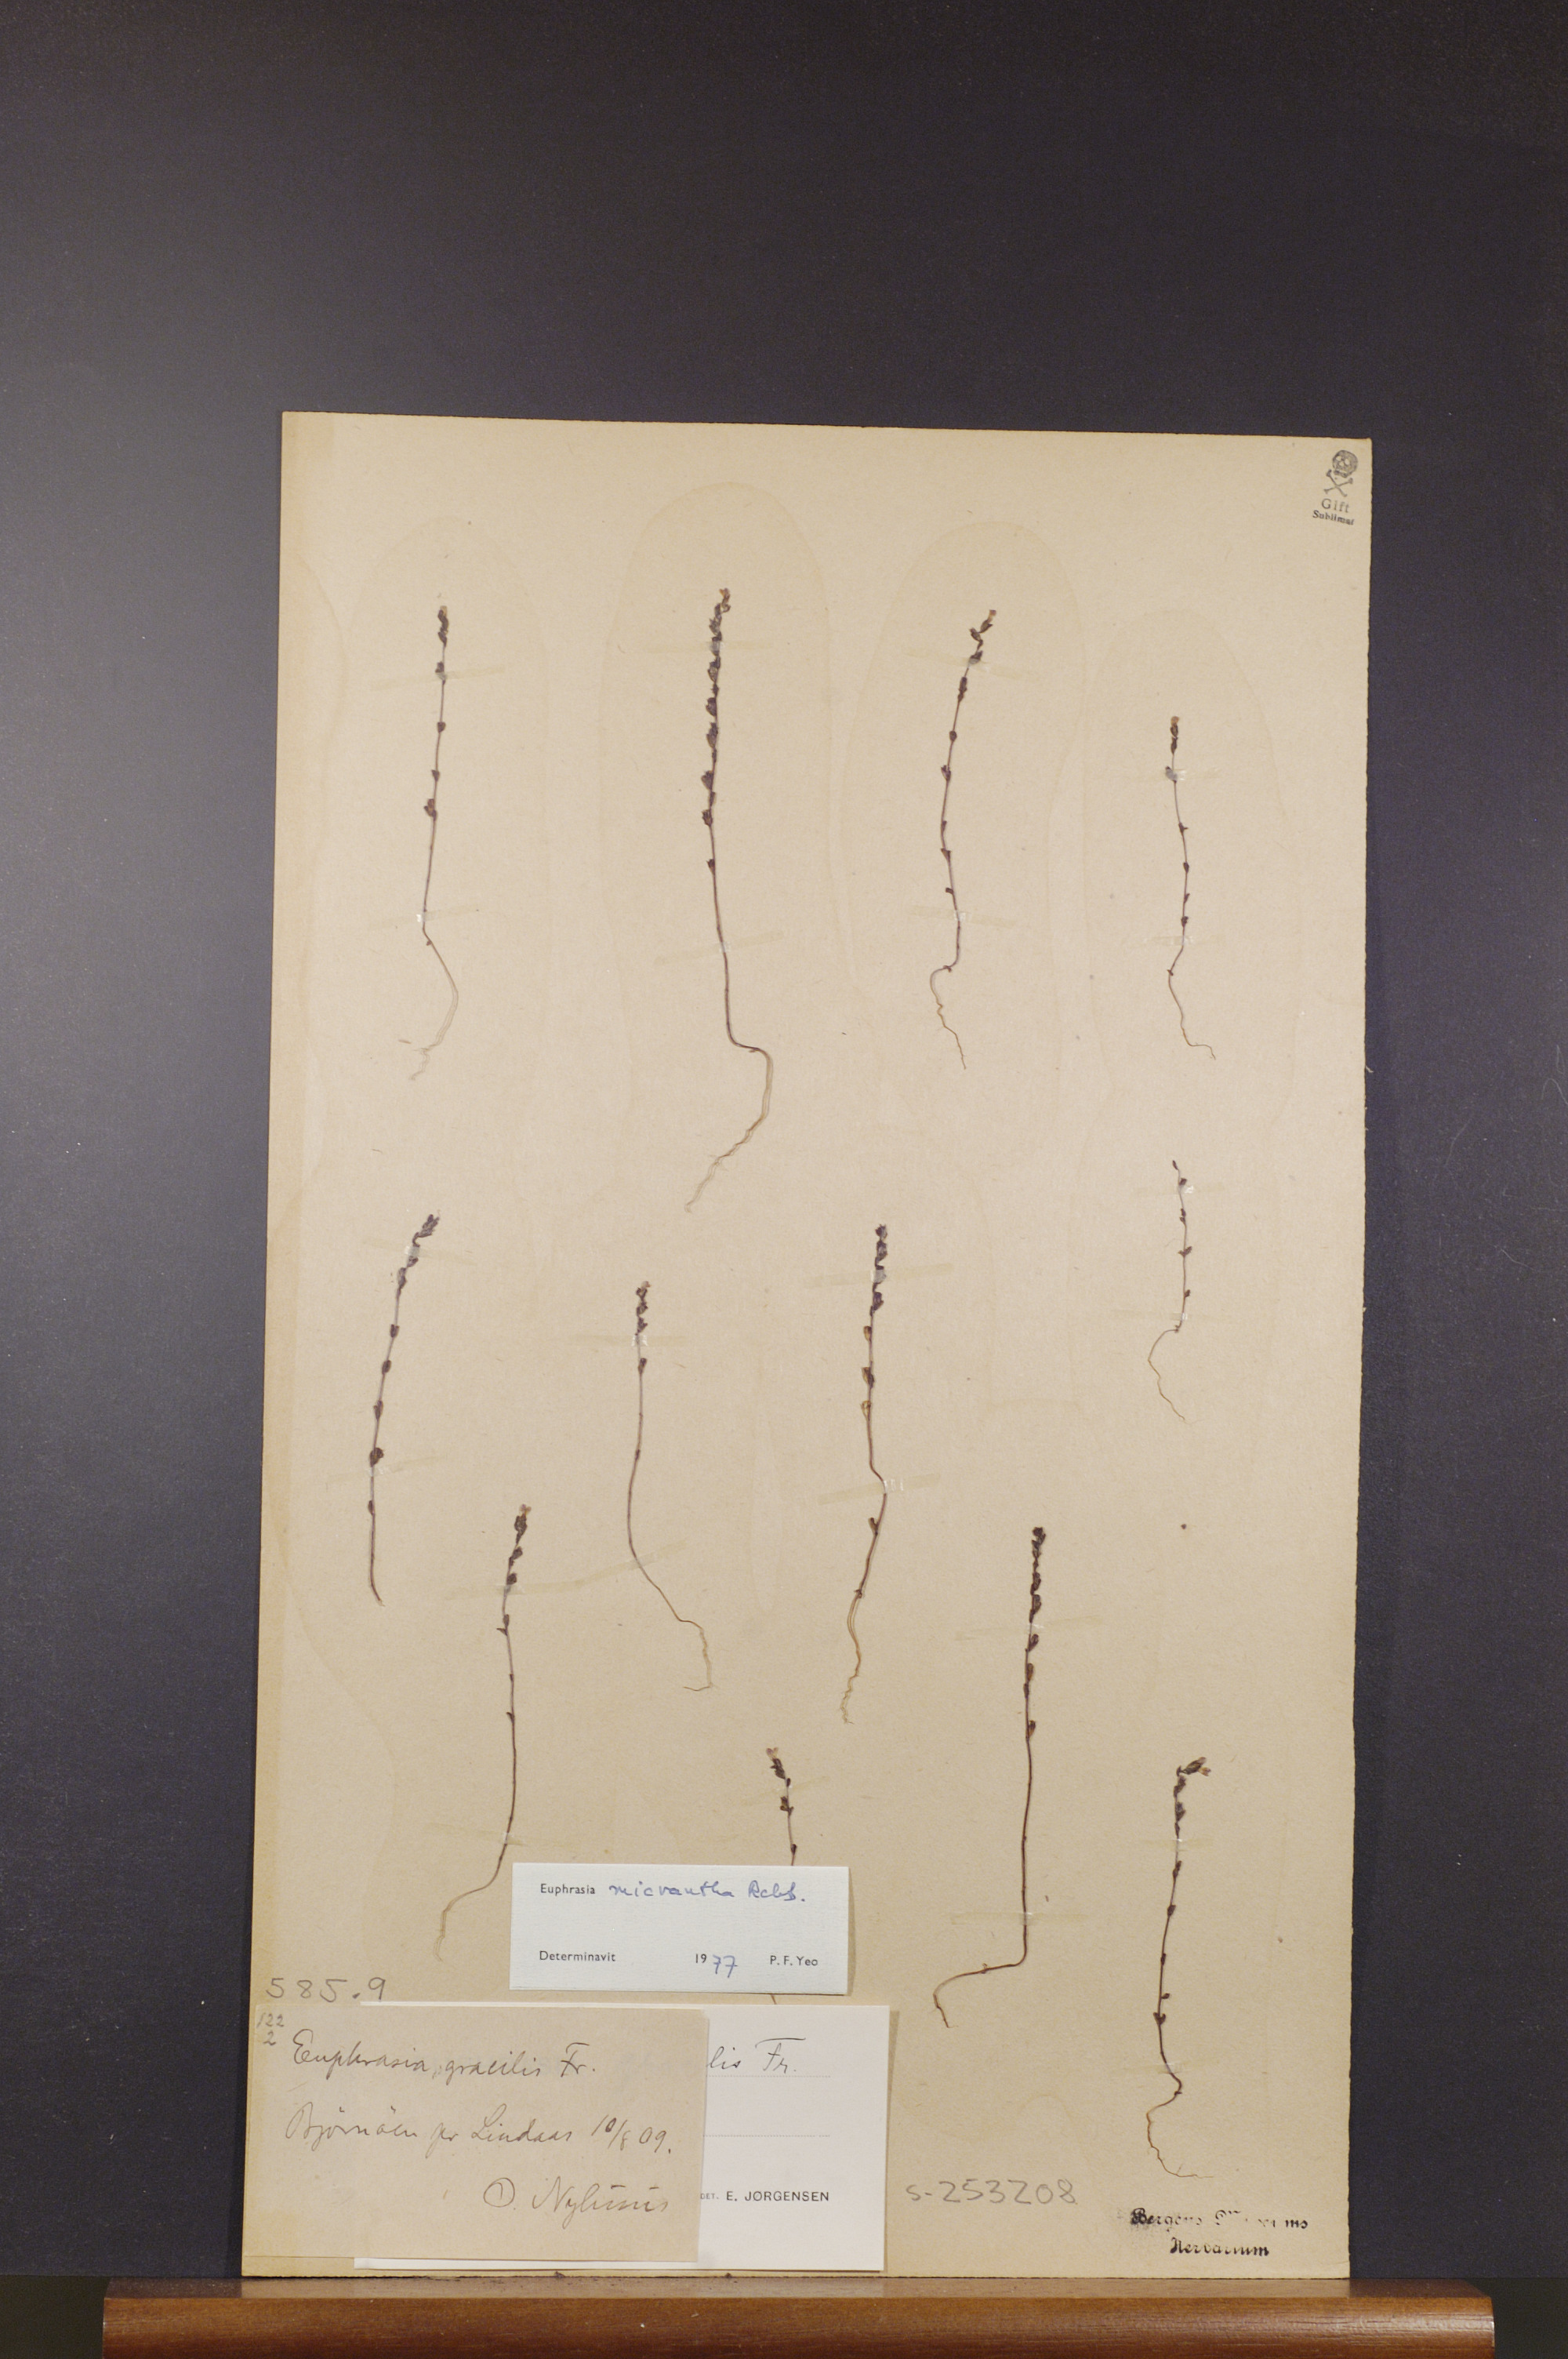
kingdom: Plantae
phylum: Tracheophyta
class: Magnoliopsida
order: Lamiales
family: Orobanchaceae
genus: Euphrasia
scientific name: Euphrasia micrantha
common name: Northern eyebright
